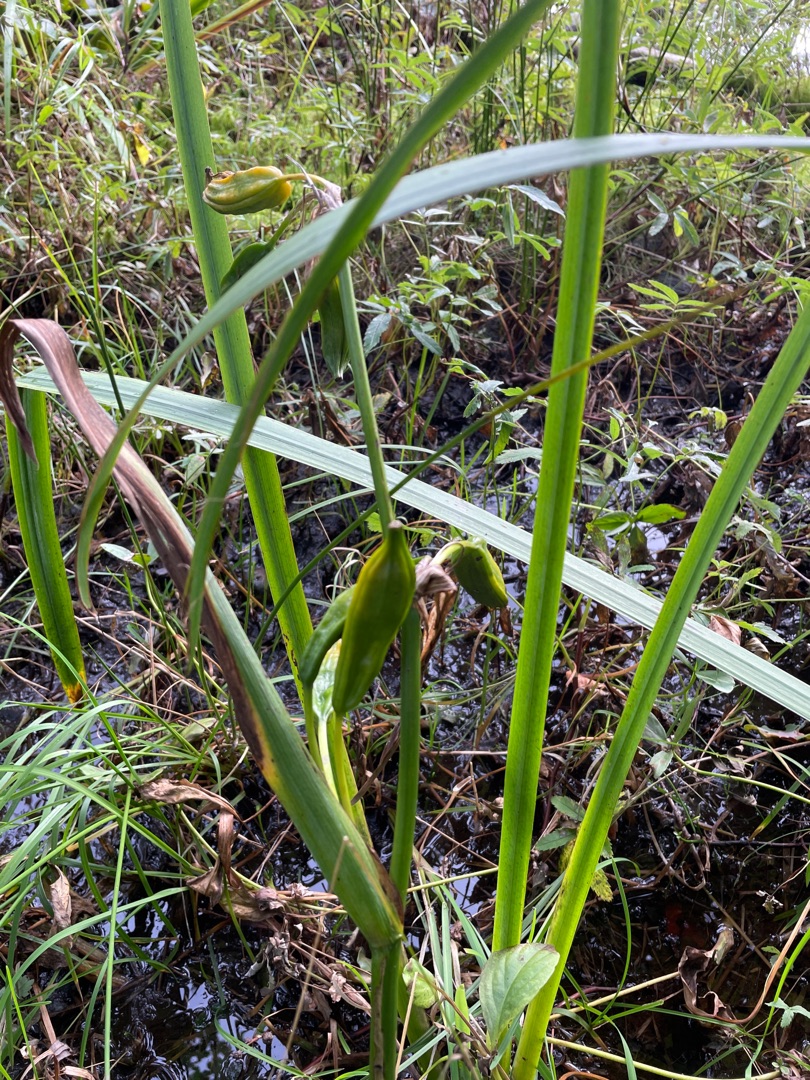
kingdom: Plantae
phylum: Tracheophyta
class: Liliopsida
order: Asparagales
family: Iridaceae
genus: Iris
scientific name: Iris pseudacorus
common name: Gul iris
